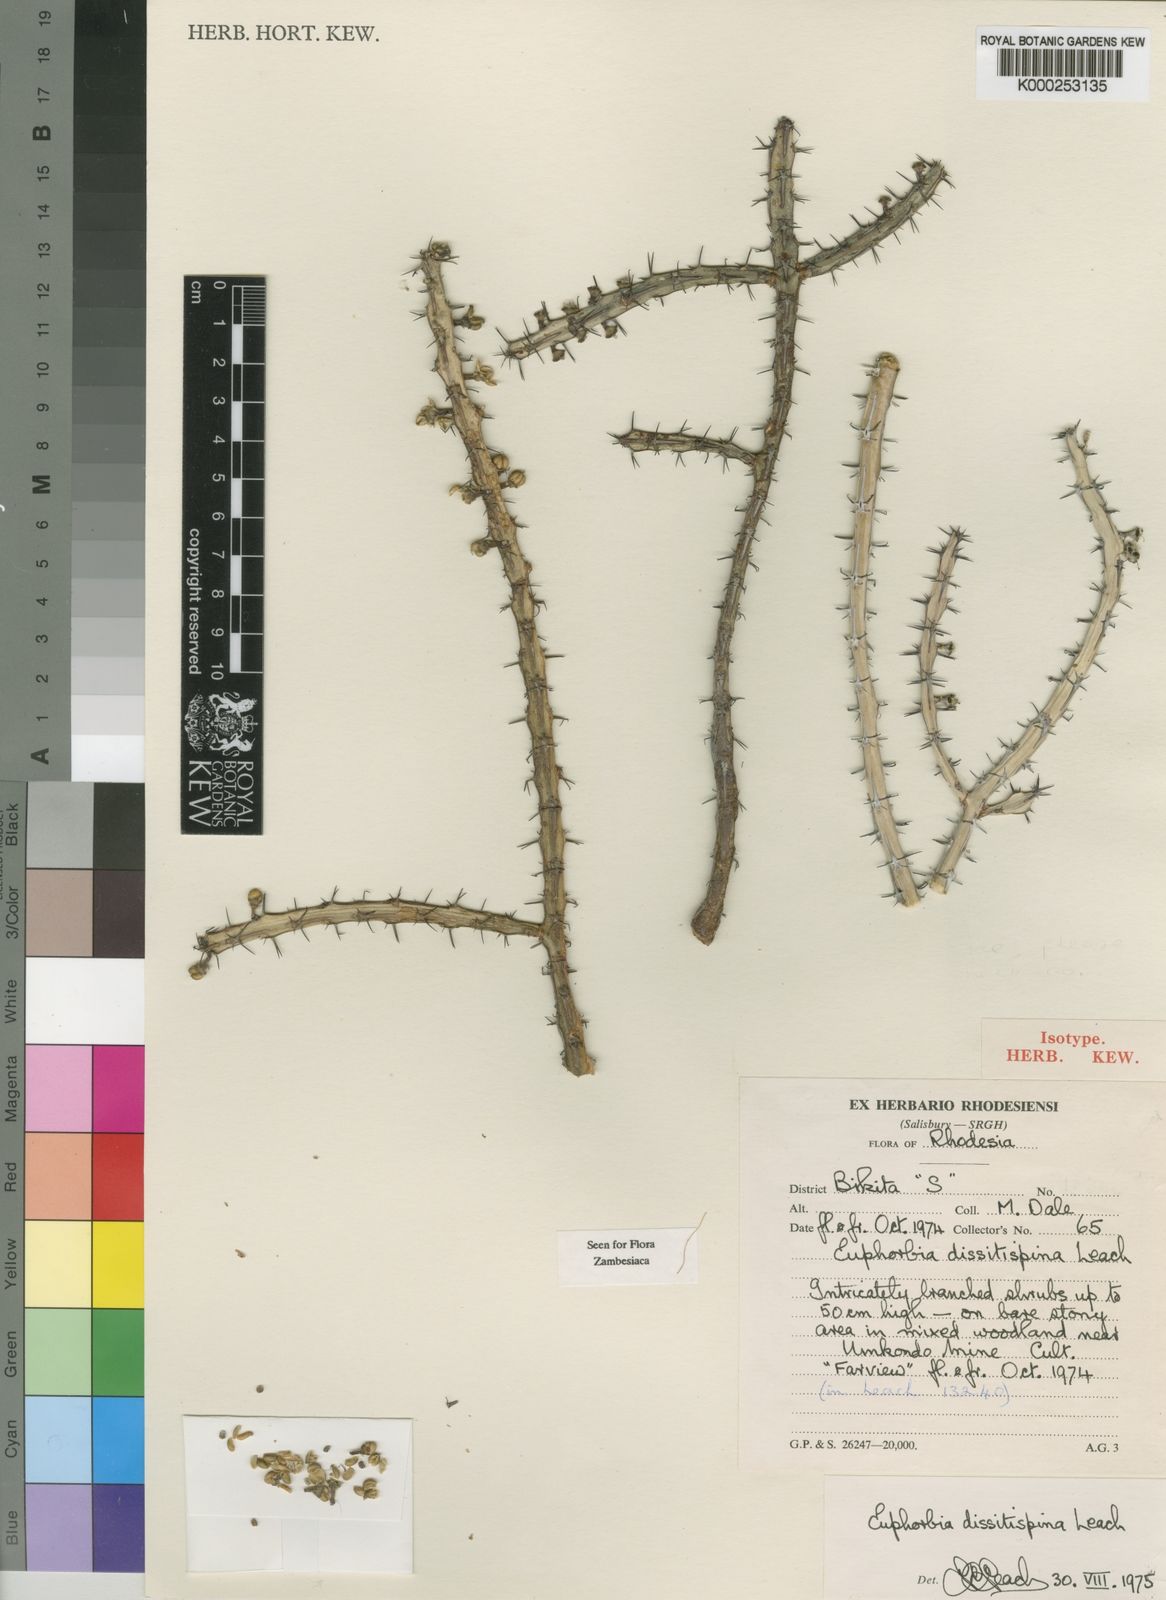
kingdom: Plantae
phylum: Tracheophyta
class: Magnoliopsida
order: Malpighiales
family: Euphorbiaceae
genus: Euphorbia
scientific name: Euphorbia dissitispina
